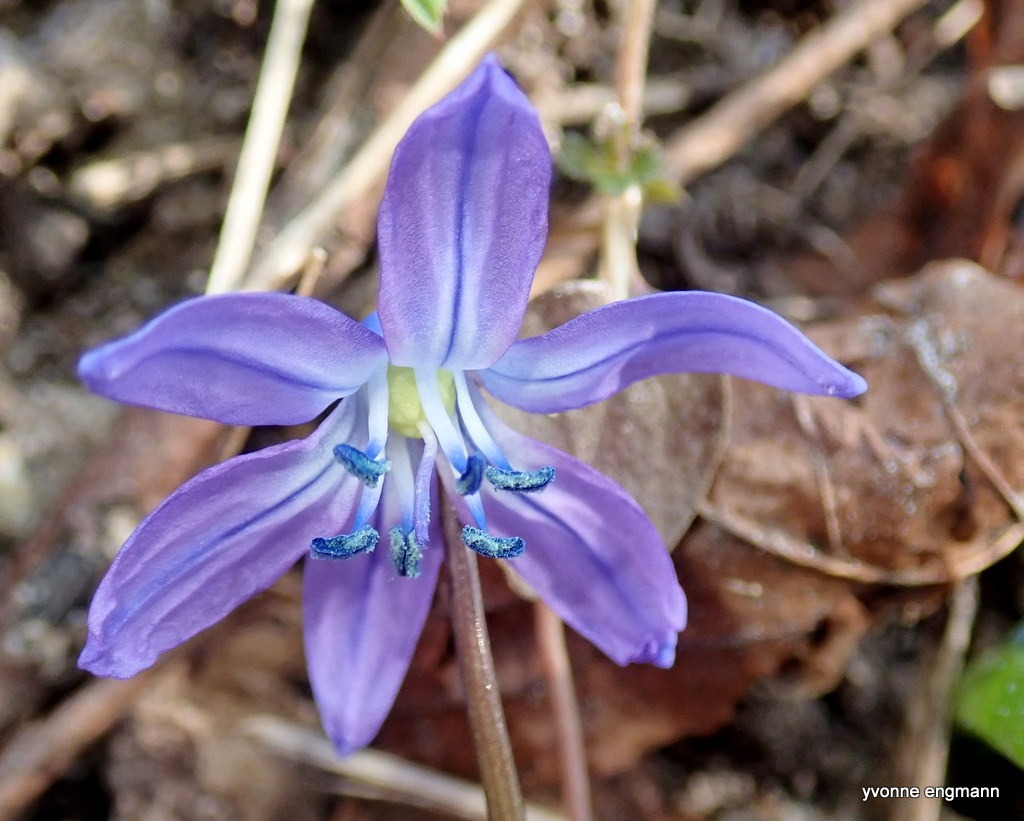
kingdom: Plantae
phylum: Tracheophyta
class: Liliopsida
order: Asparagales
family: Asparagaceae
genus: Scilla
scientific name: Scilla siberica
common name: Russisk skilla
